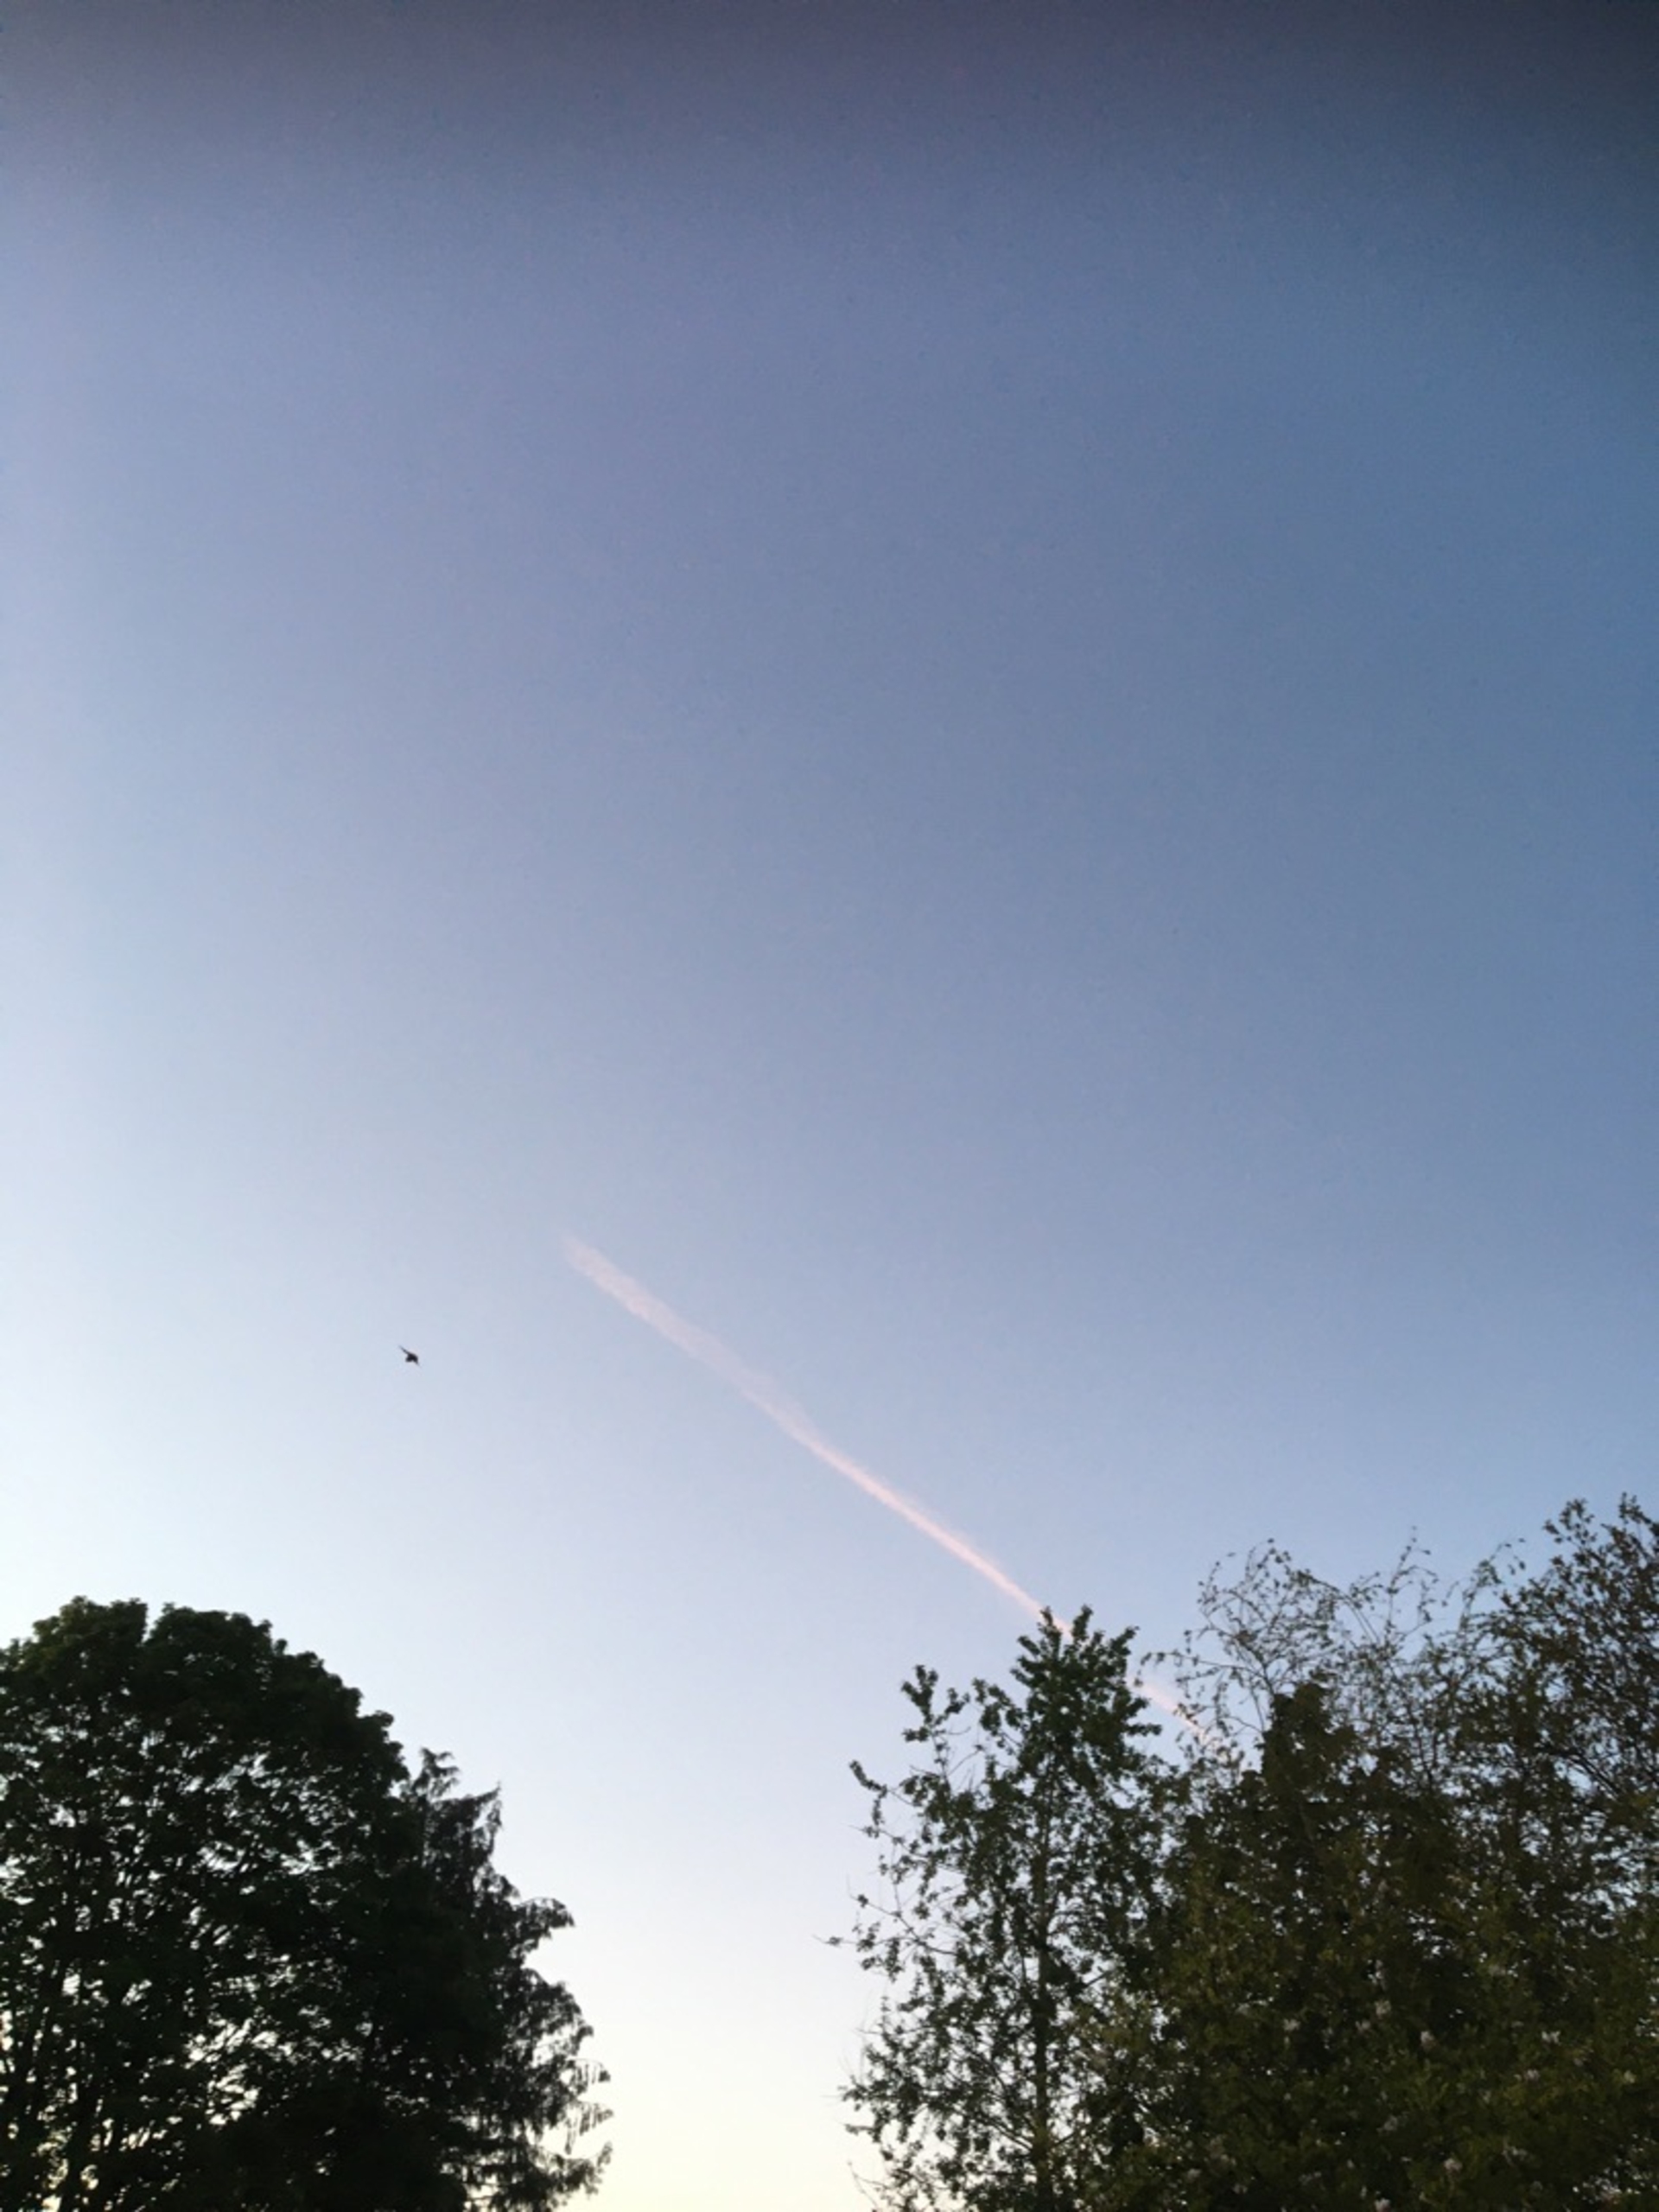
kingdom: Animalia
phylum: Chordata
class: Mammalia
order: Chiroptera
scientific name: Chiroptera
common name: Flagermus
